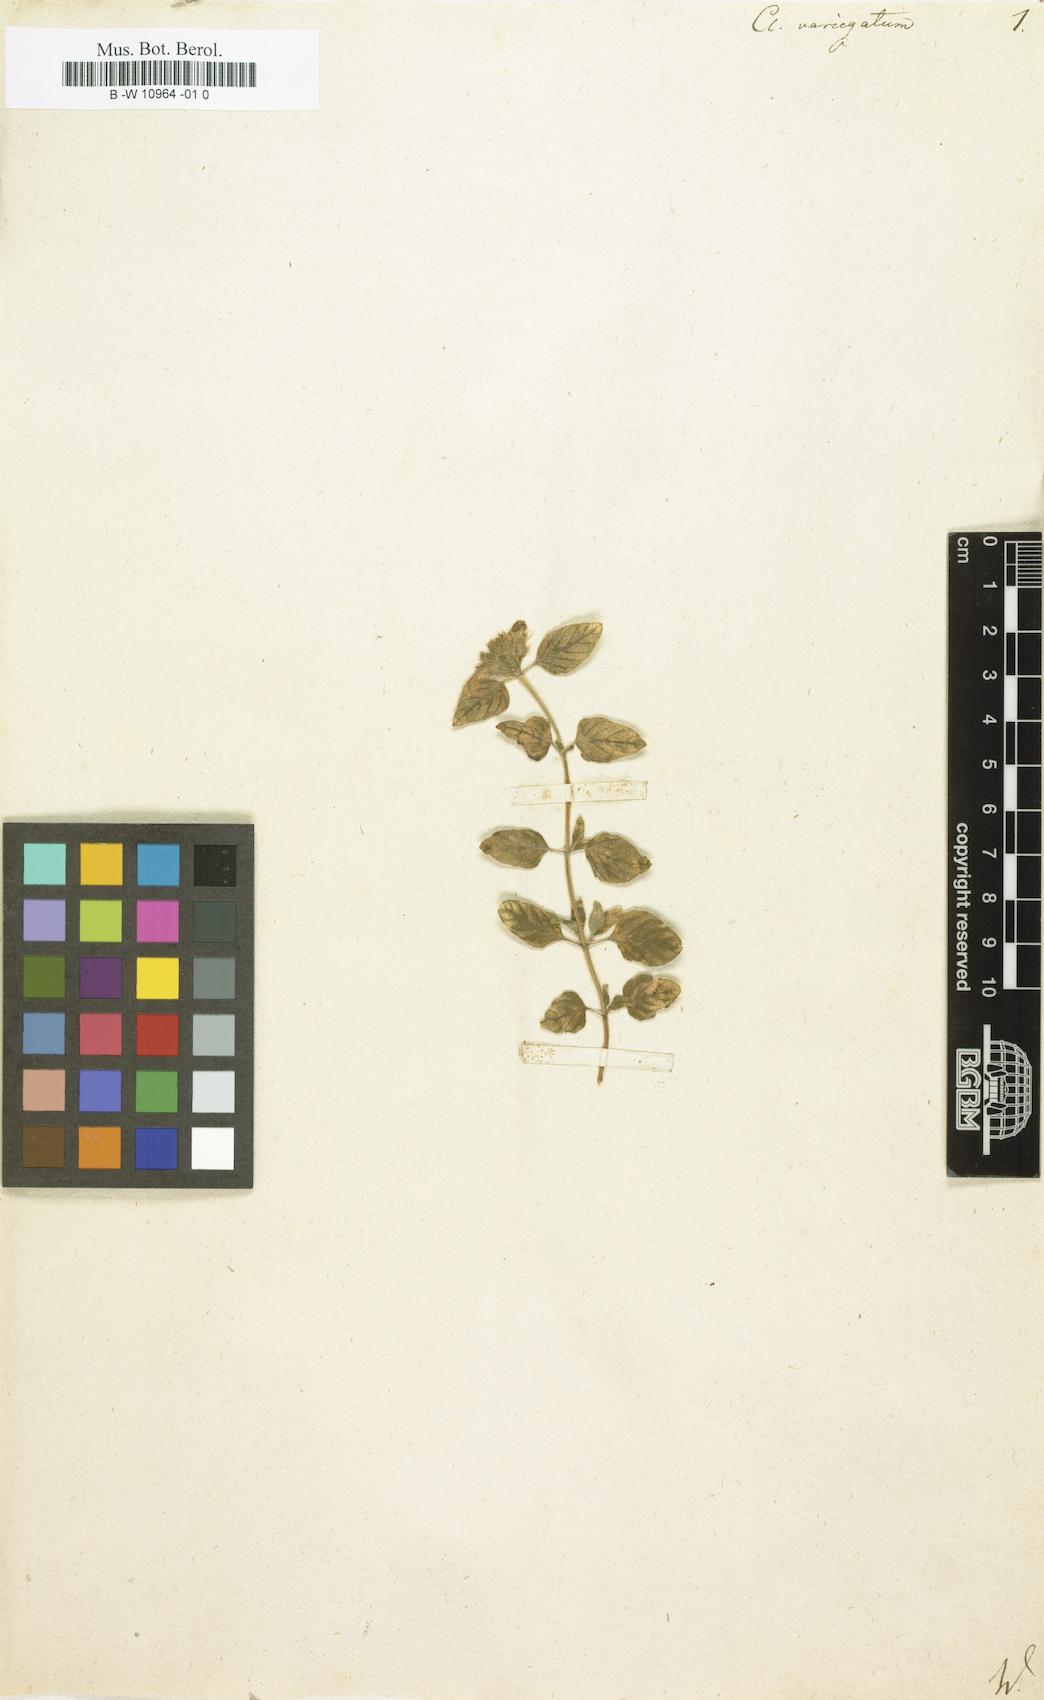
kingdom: Plantae
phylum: Tracheophyta
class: Magnoliopsida
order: Lamiales
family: Lamiaceae
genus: Clinopodium
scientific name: Clinopodium vulgare
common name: Wild basil
